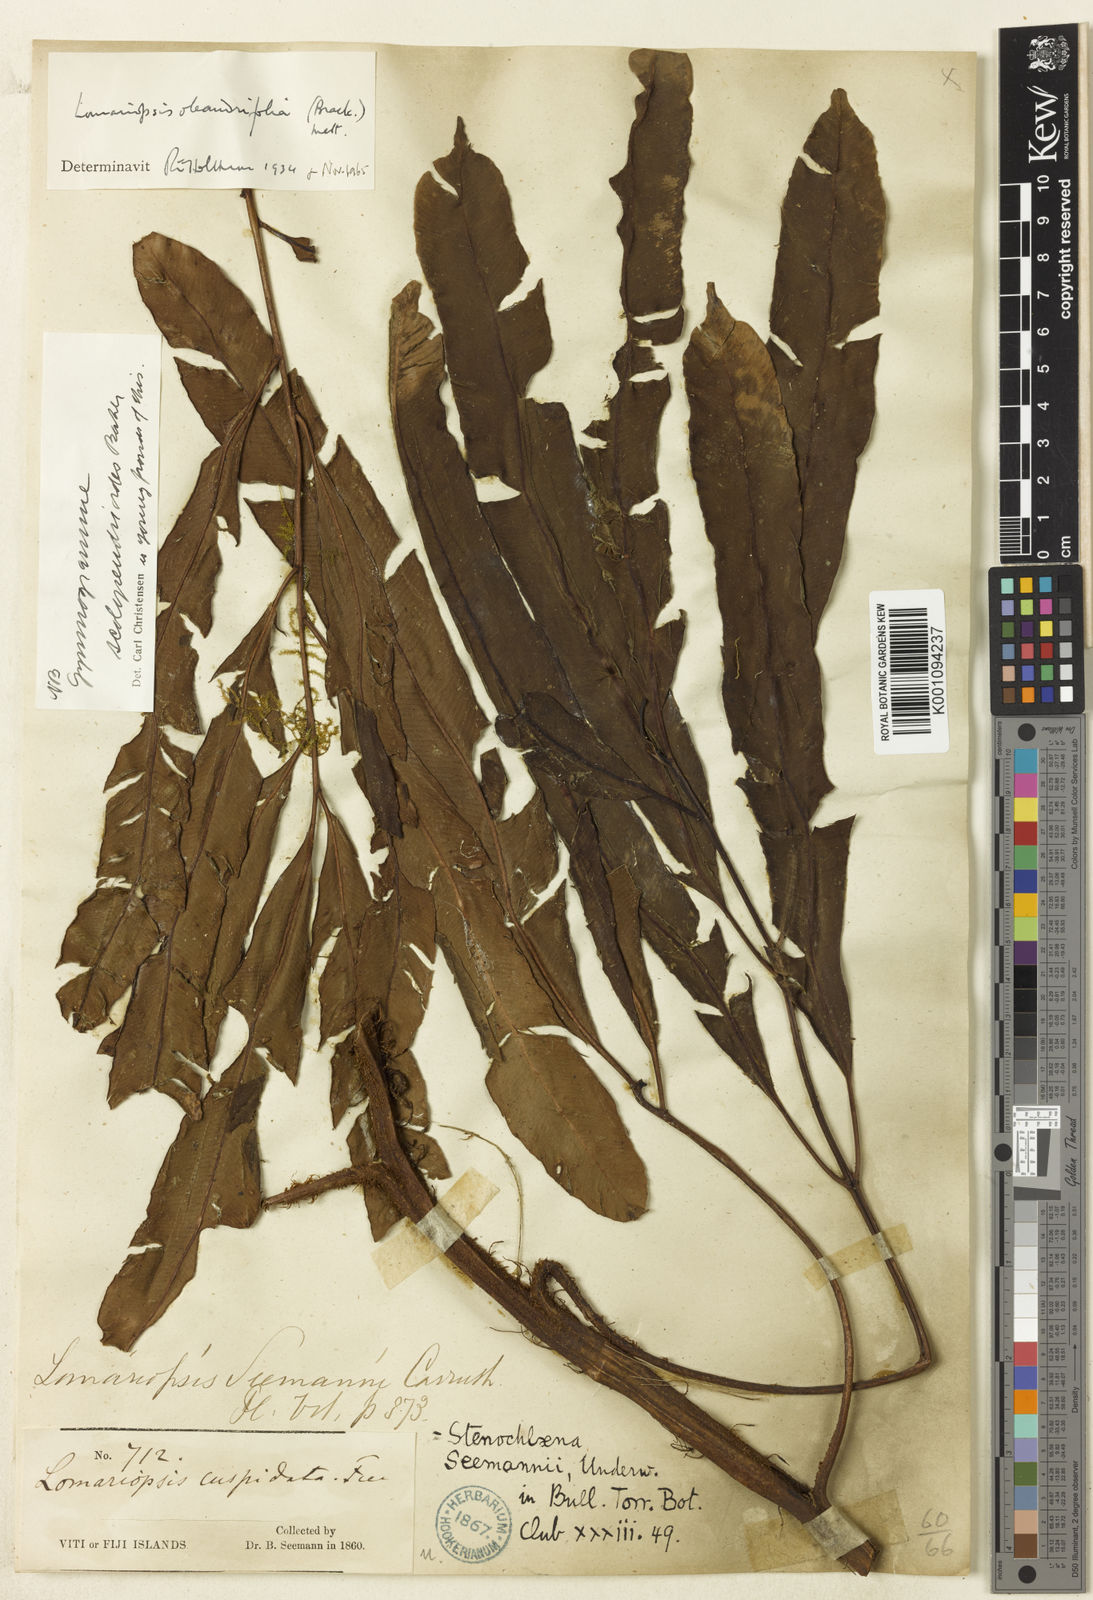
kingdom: Plantae
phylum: Tracheophyta
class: Polypodiopsida
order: Polypodiales
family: Lomariopsidaceae
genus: Lomariopsis
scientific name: Lomariopsis oleandrifolia
